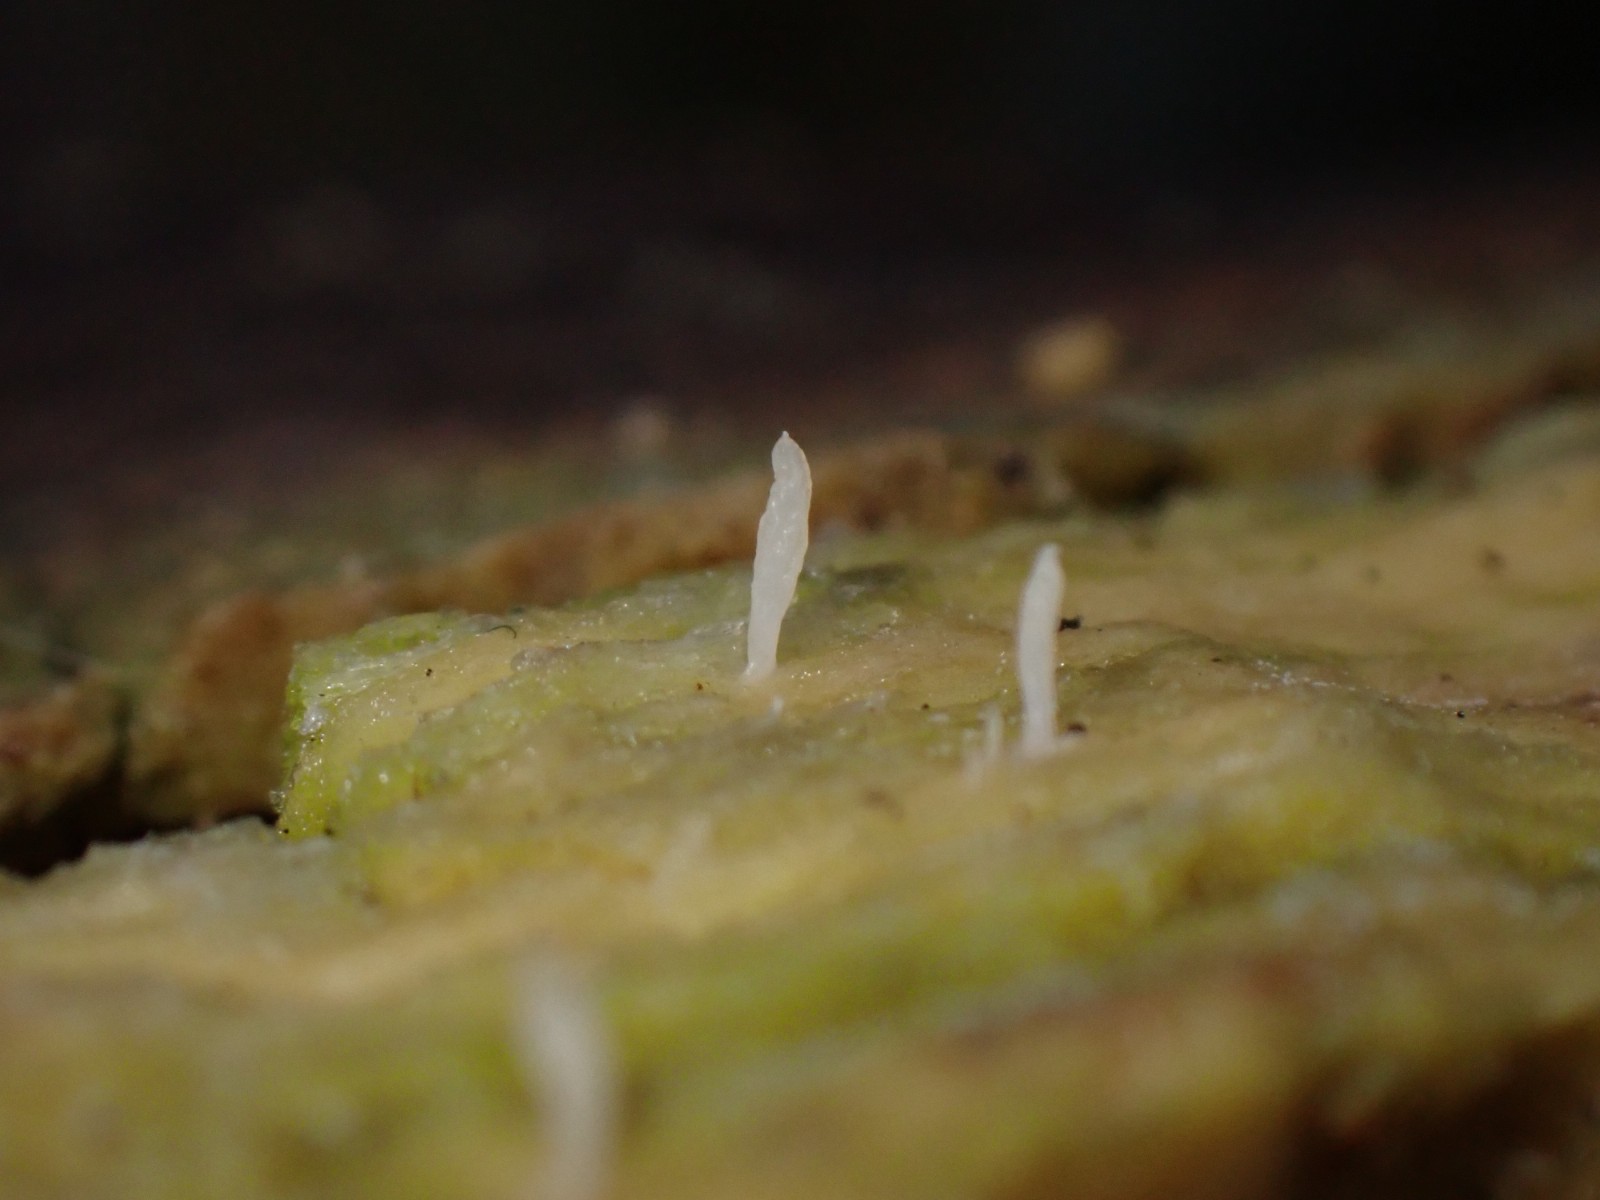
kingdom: Fungi
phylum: Basidiomycota
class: Agaricomycetes
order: Cantharellales
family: Hydnaceae
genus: Multiclavula
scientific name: Multiclavula mucida
